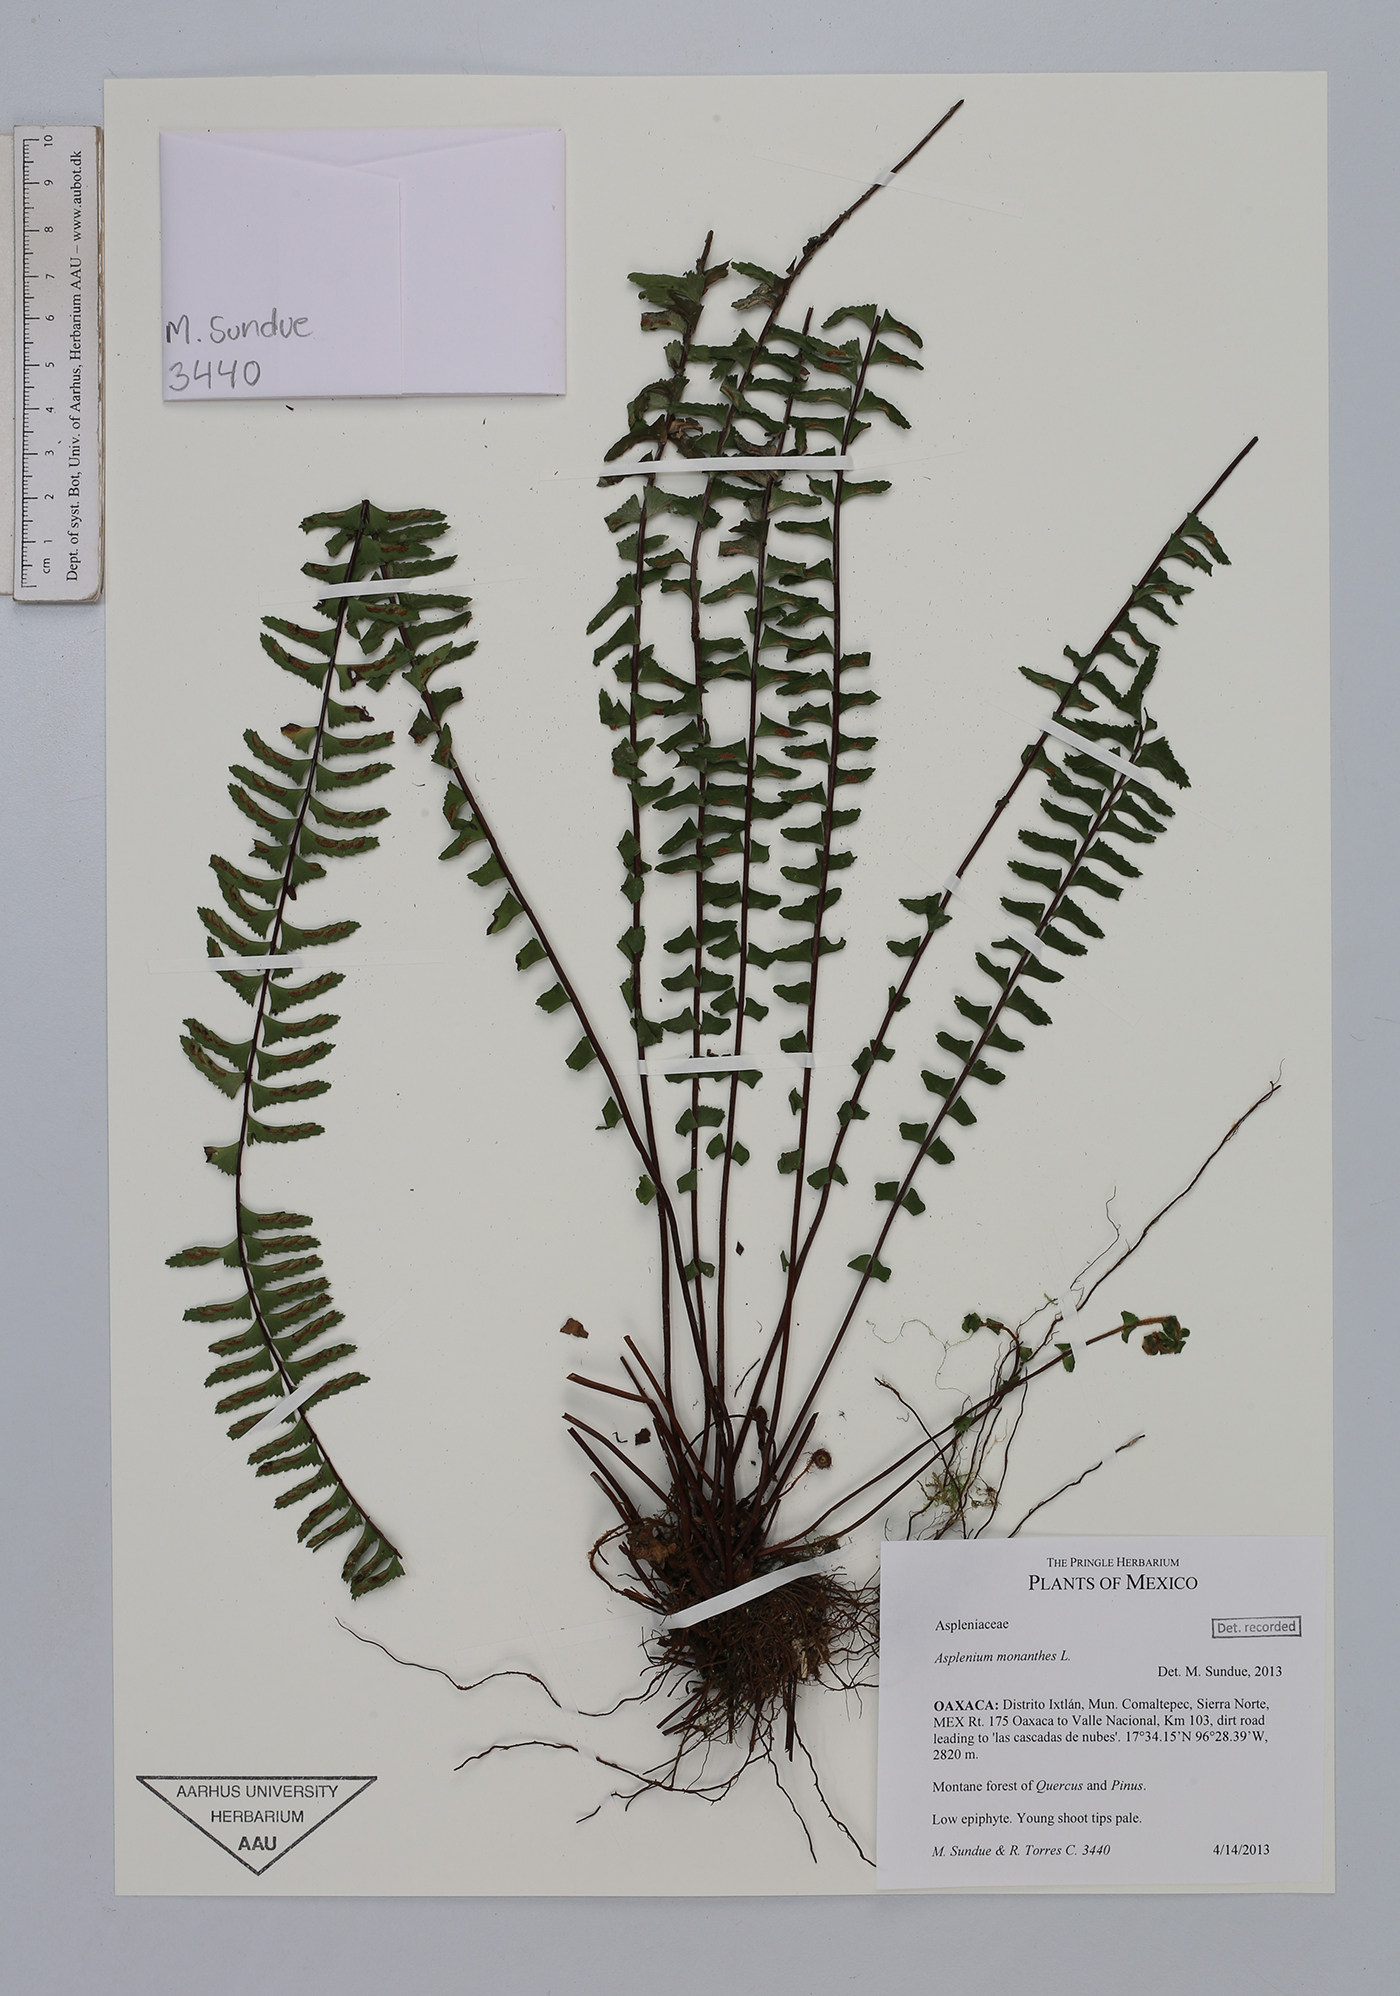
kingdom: Plantae
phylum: Tracheophyta
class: Polypodiopsida
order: Polypodiales
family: Aspleniaceae
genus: Asplenium
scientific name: Asplenium monanthes
